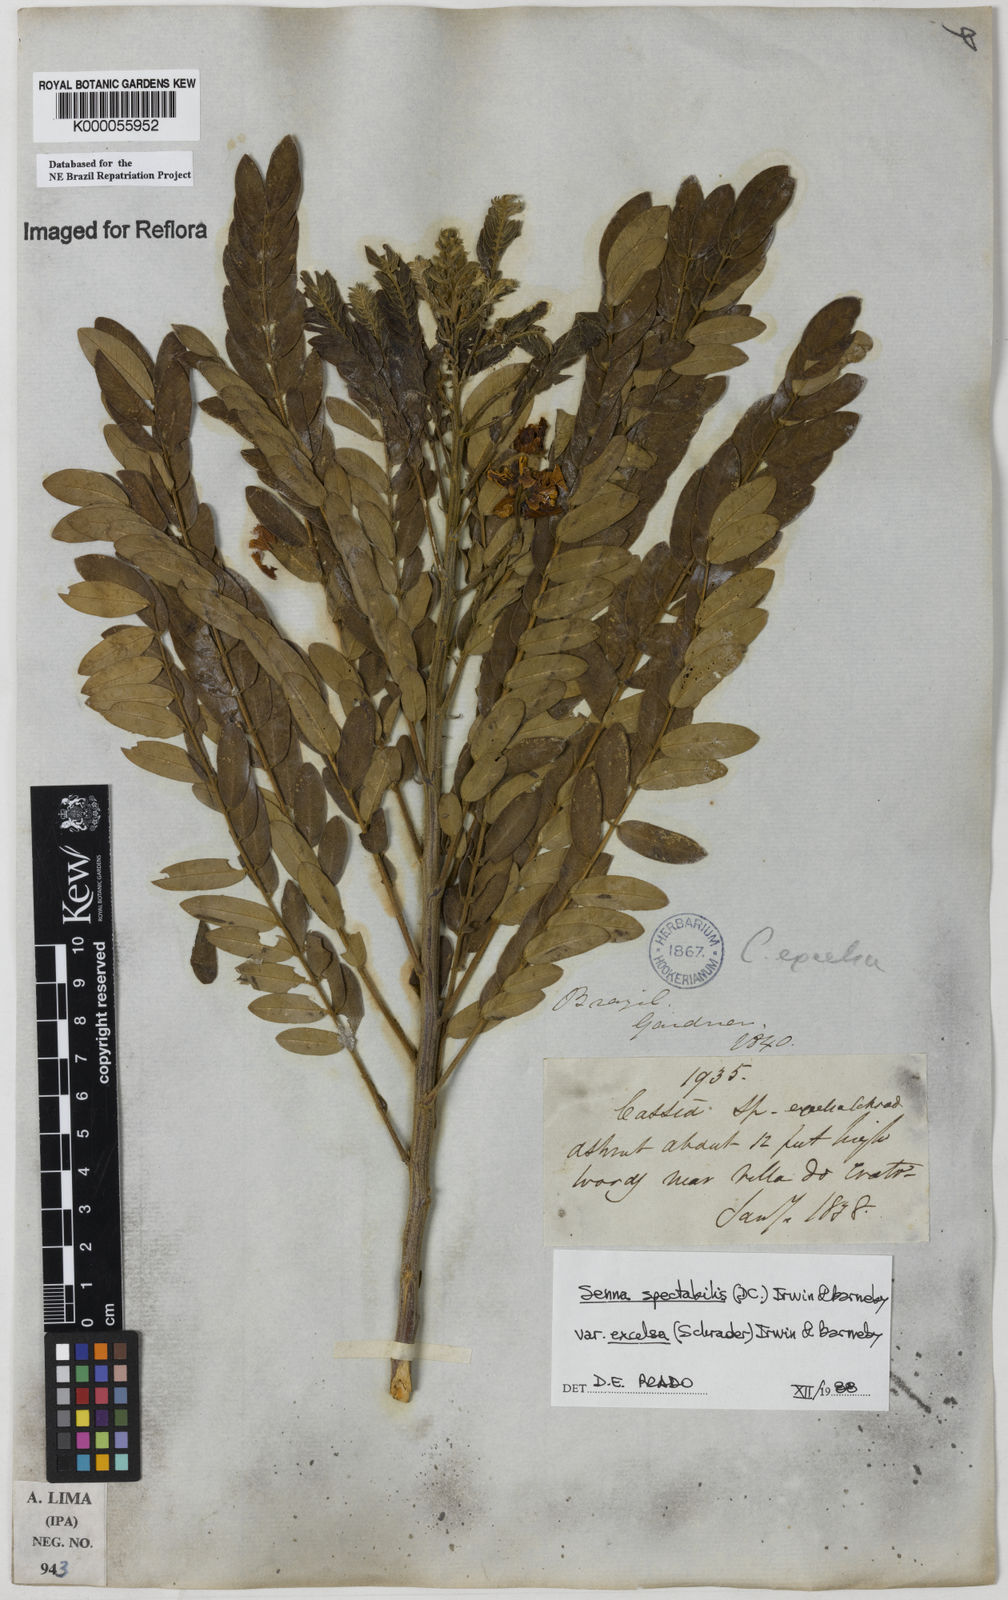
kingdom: Plantae
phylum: Tracheophyta
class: Magnoliopsida
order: Fabales
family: Fabaceae
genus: Senna
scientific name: Senna spectabilis
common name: Casia amarilla
